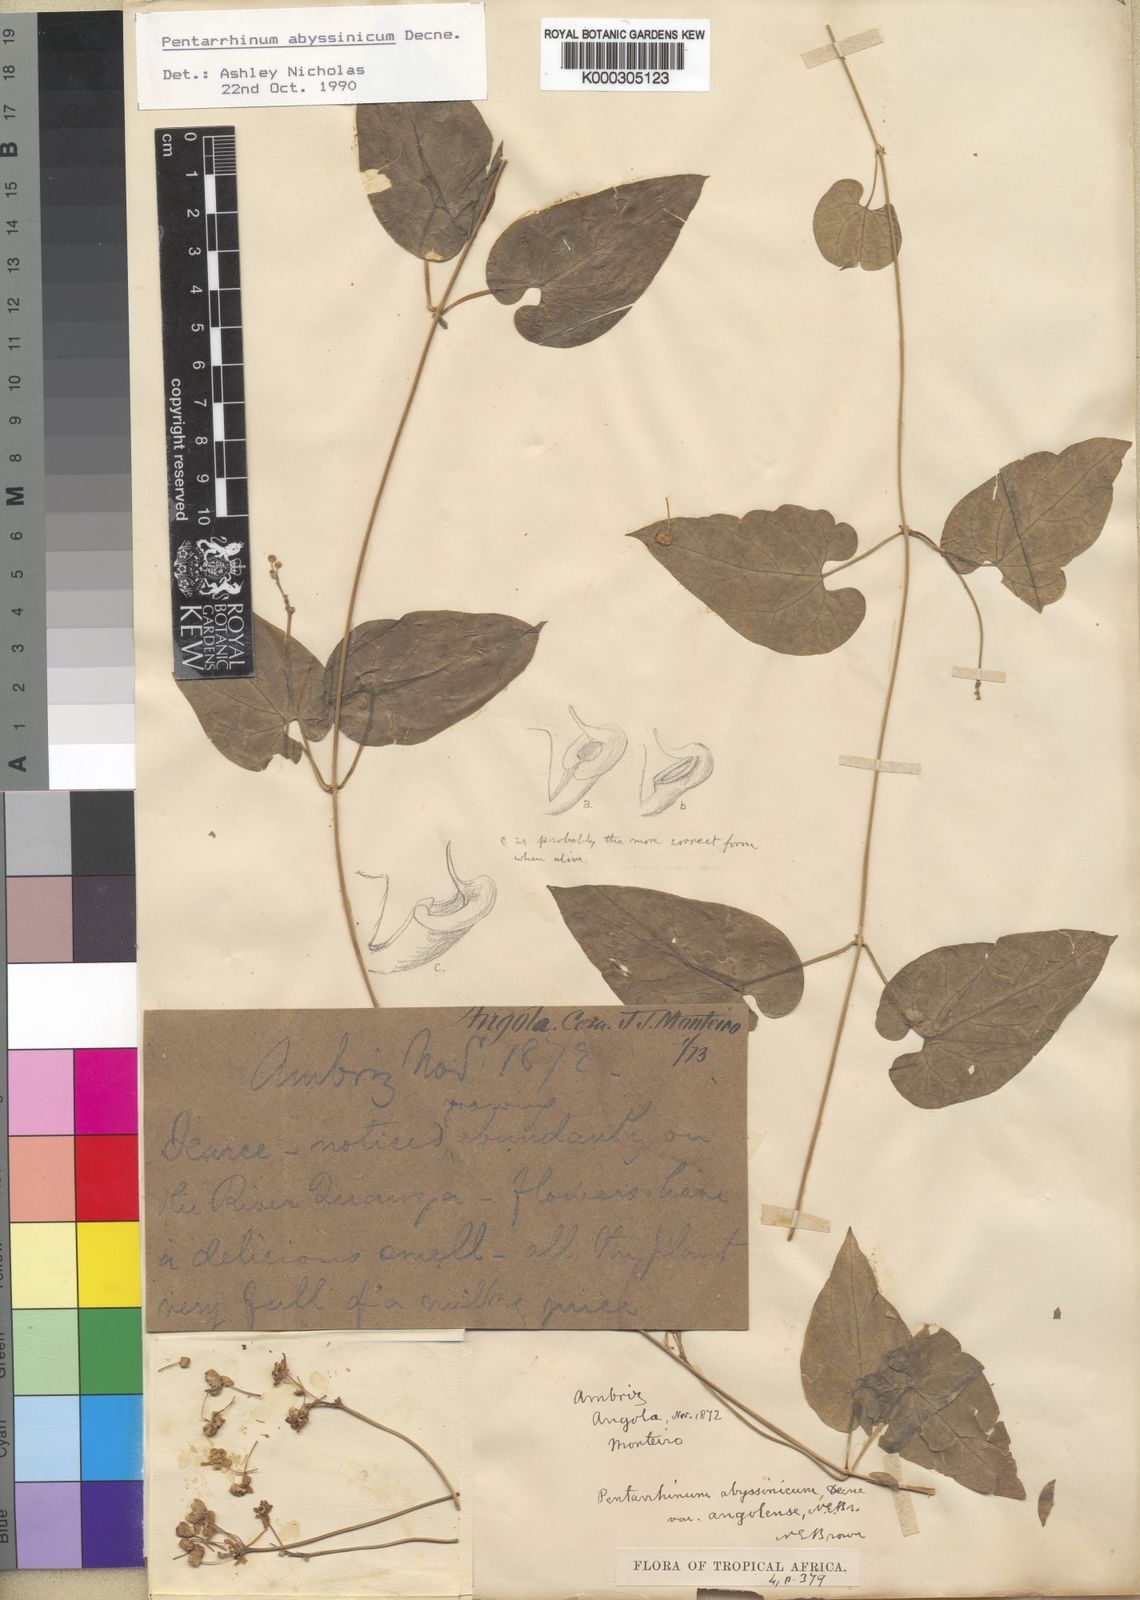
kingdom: Plantae
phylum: Tracheophyta
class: Magnoliopsida
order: Gentianales
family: Apocynaceae
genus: Cynanchum
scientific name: Cynanchum ethiopicum
